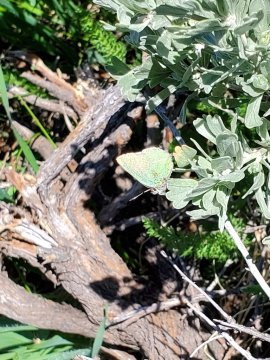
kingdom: Animalia
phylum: Arthropoda
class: Insecta
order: Lepidoptera
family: Lycaenidae
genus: Thecla
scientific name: Thecla sheridanii
